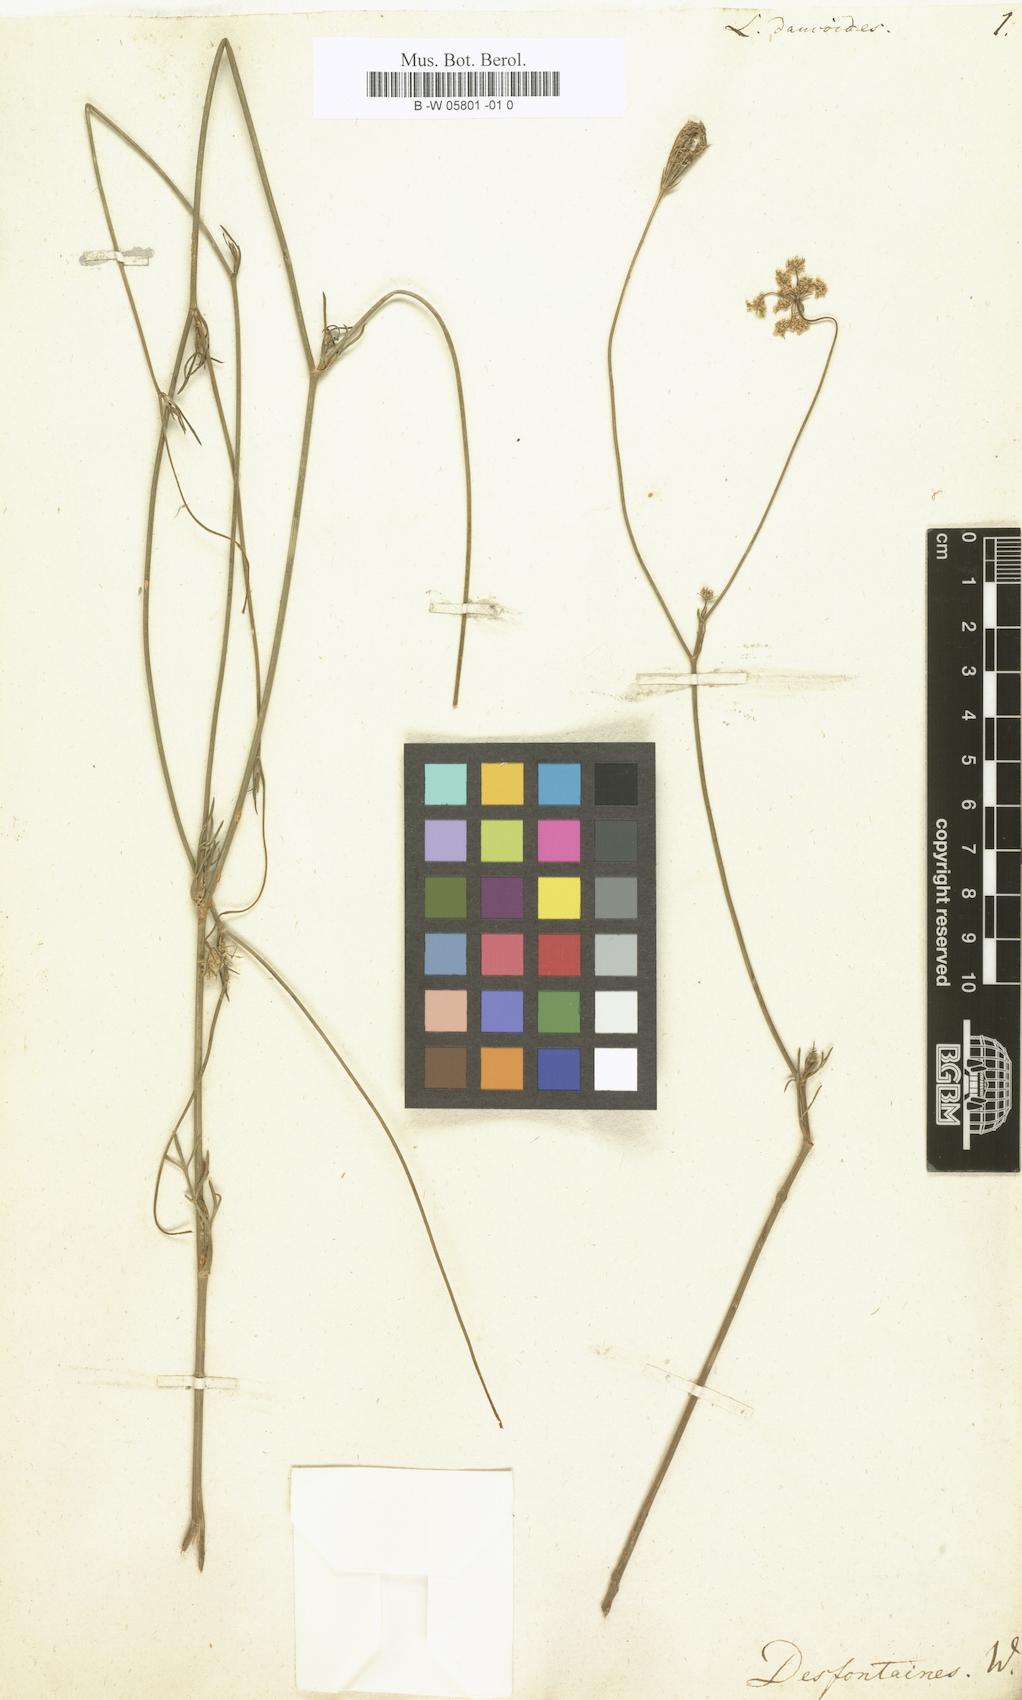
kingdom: Plantae
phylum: Tracheophyta
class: Magnoliopsida
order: Apiales
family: Apiaceae
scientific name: Apiaceae
